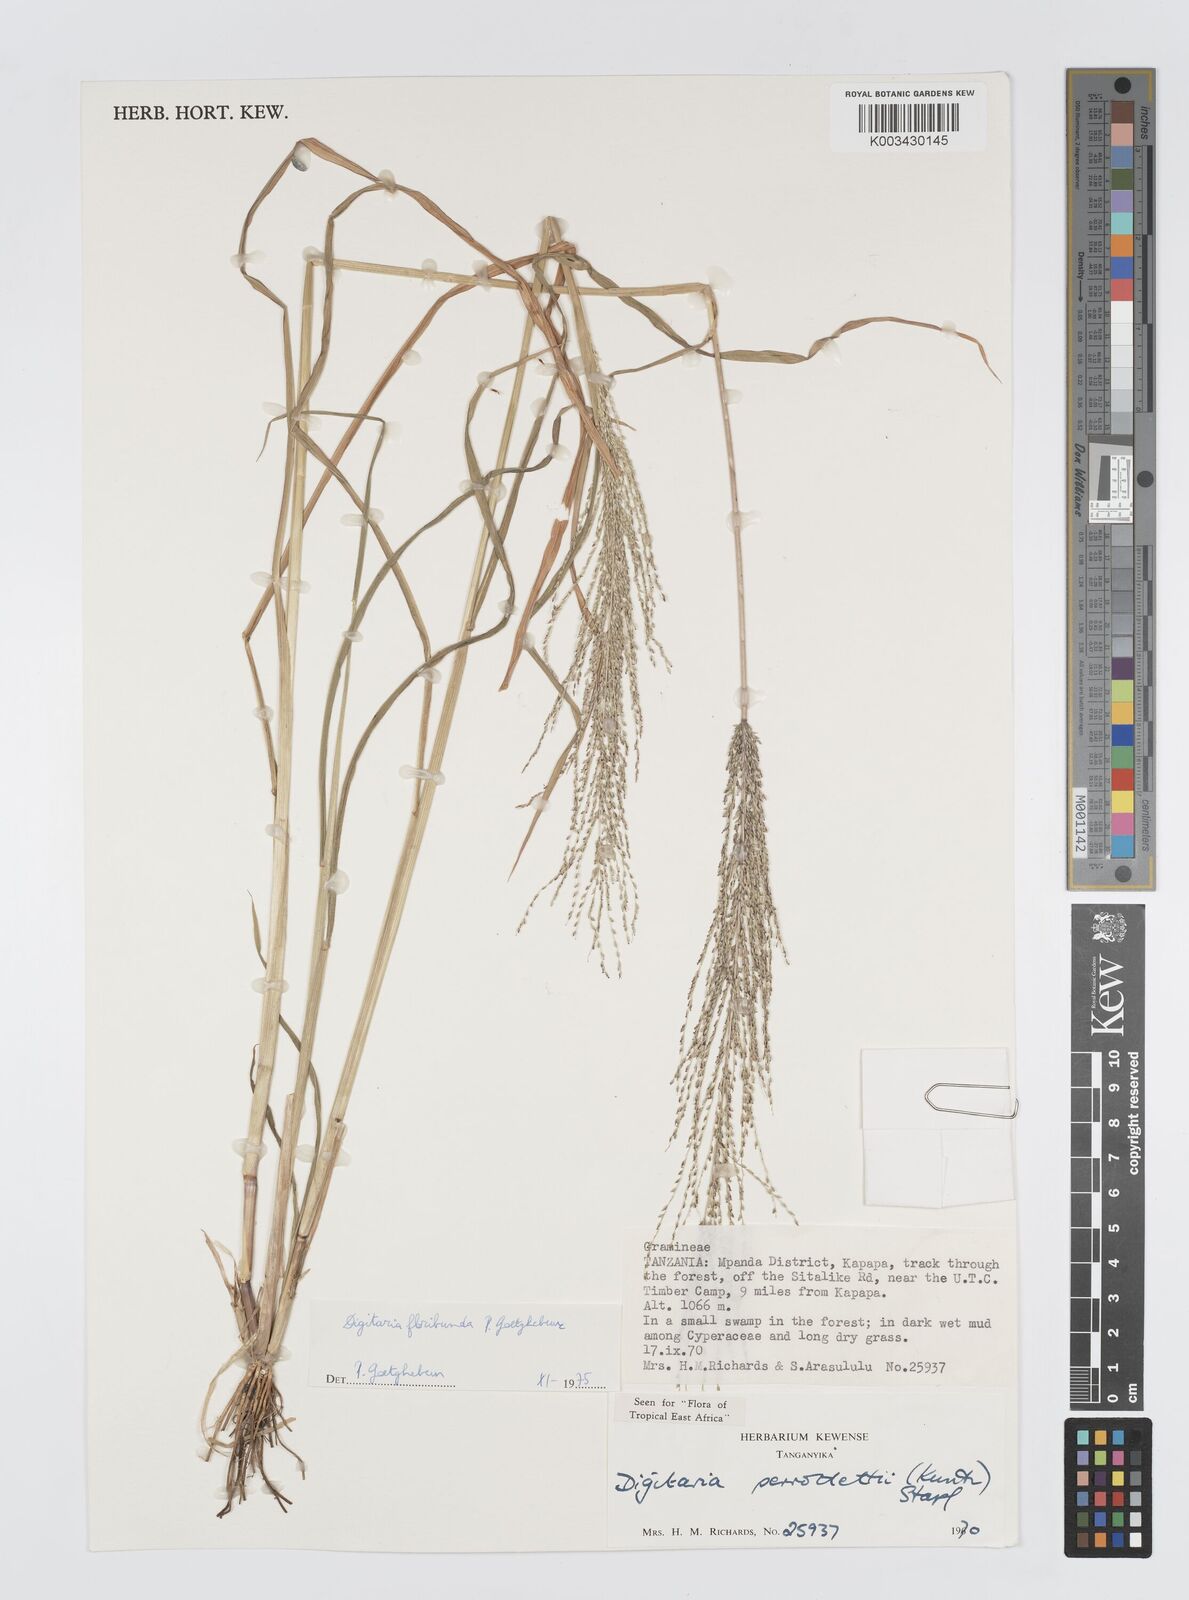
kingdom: Plantae
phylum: Tracheophyta
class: Liliopsida
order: Poales
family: Poaceae
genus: Digitaria
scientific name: Digitaria perrottetii
